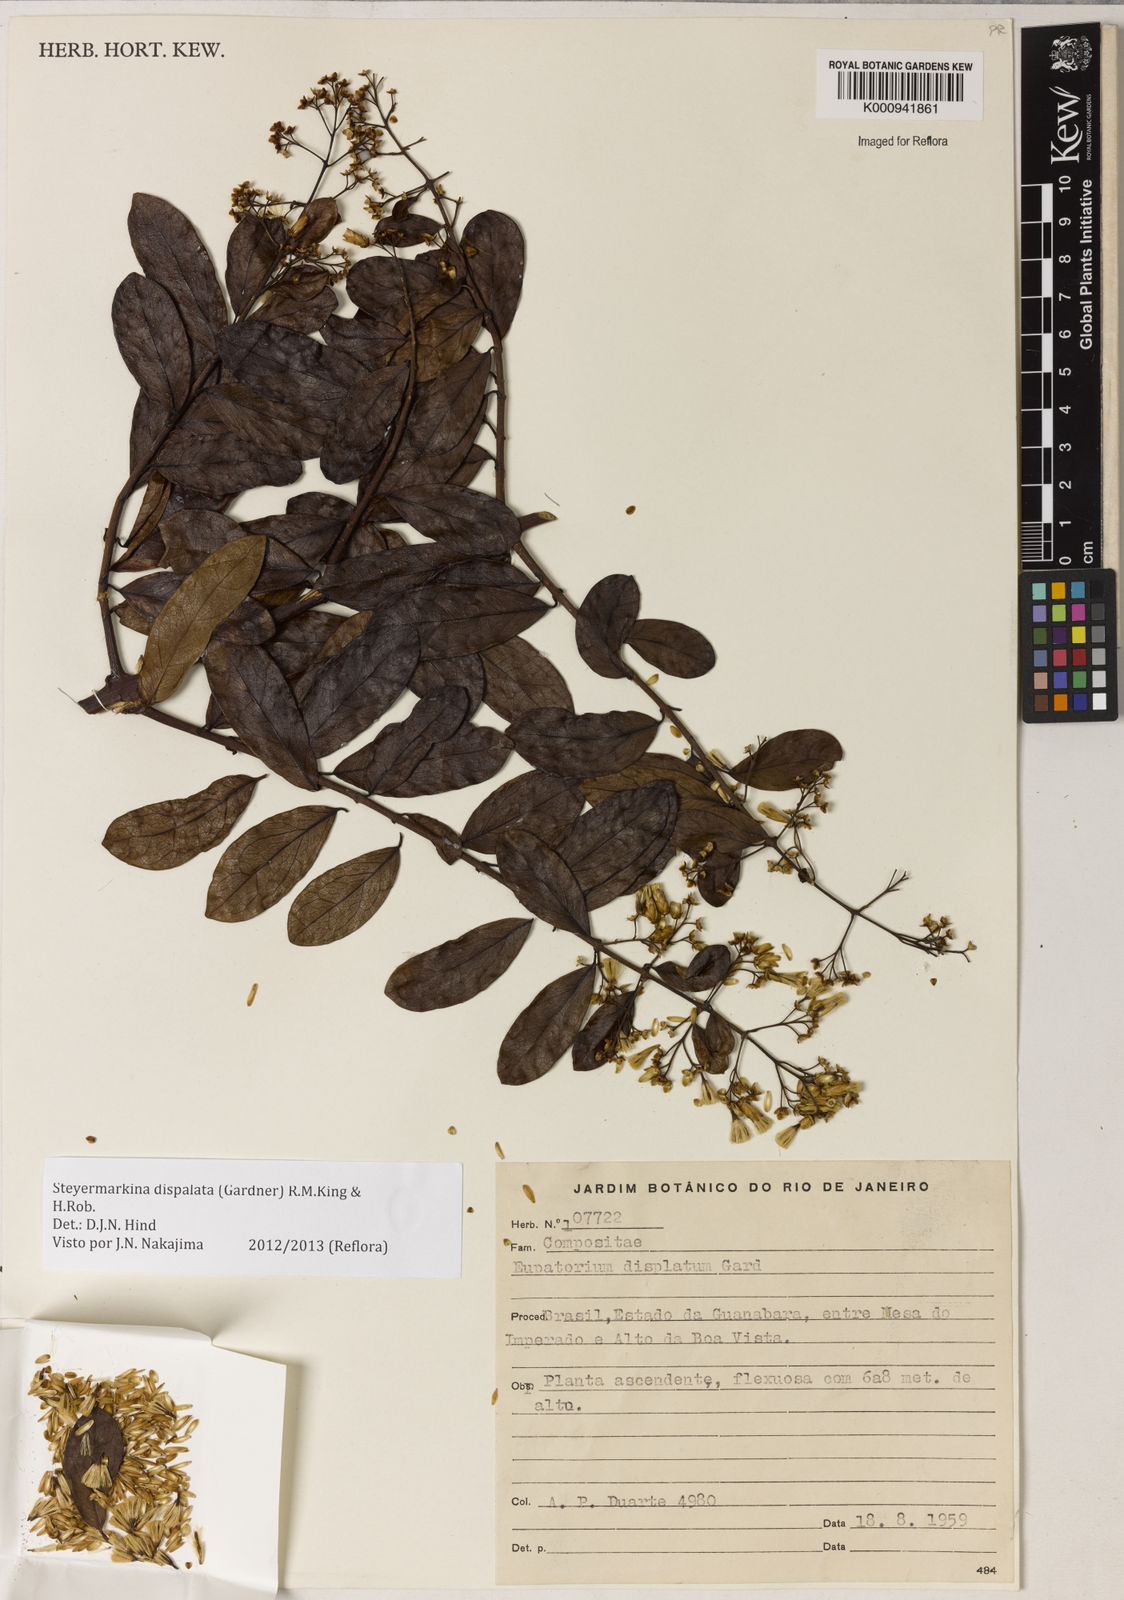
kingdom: Plantae
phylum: Tracheophyta
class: Magnoliopsida
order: Asterales
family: Asteraceae
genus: Steyermarkina
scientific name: Steyermarkina dispalata
